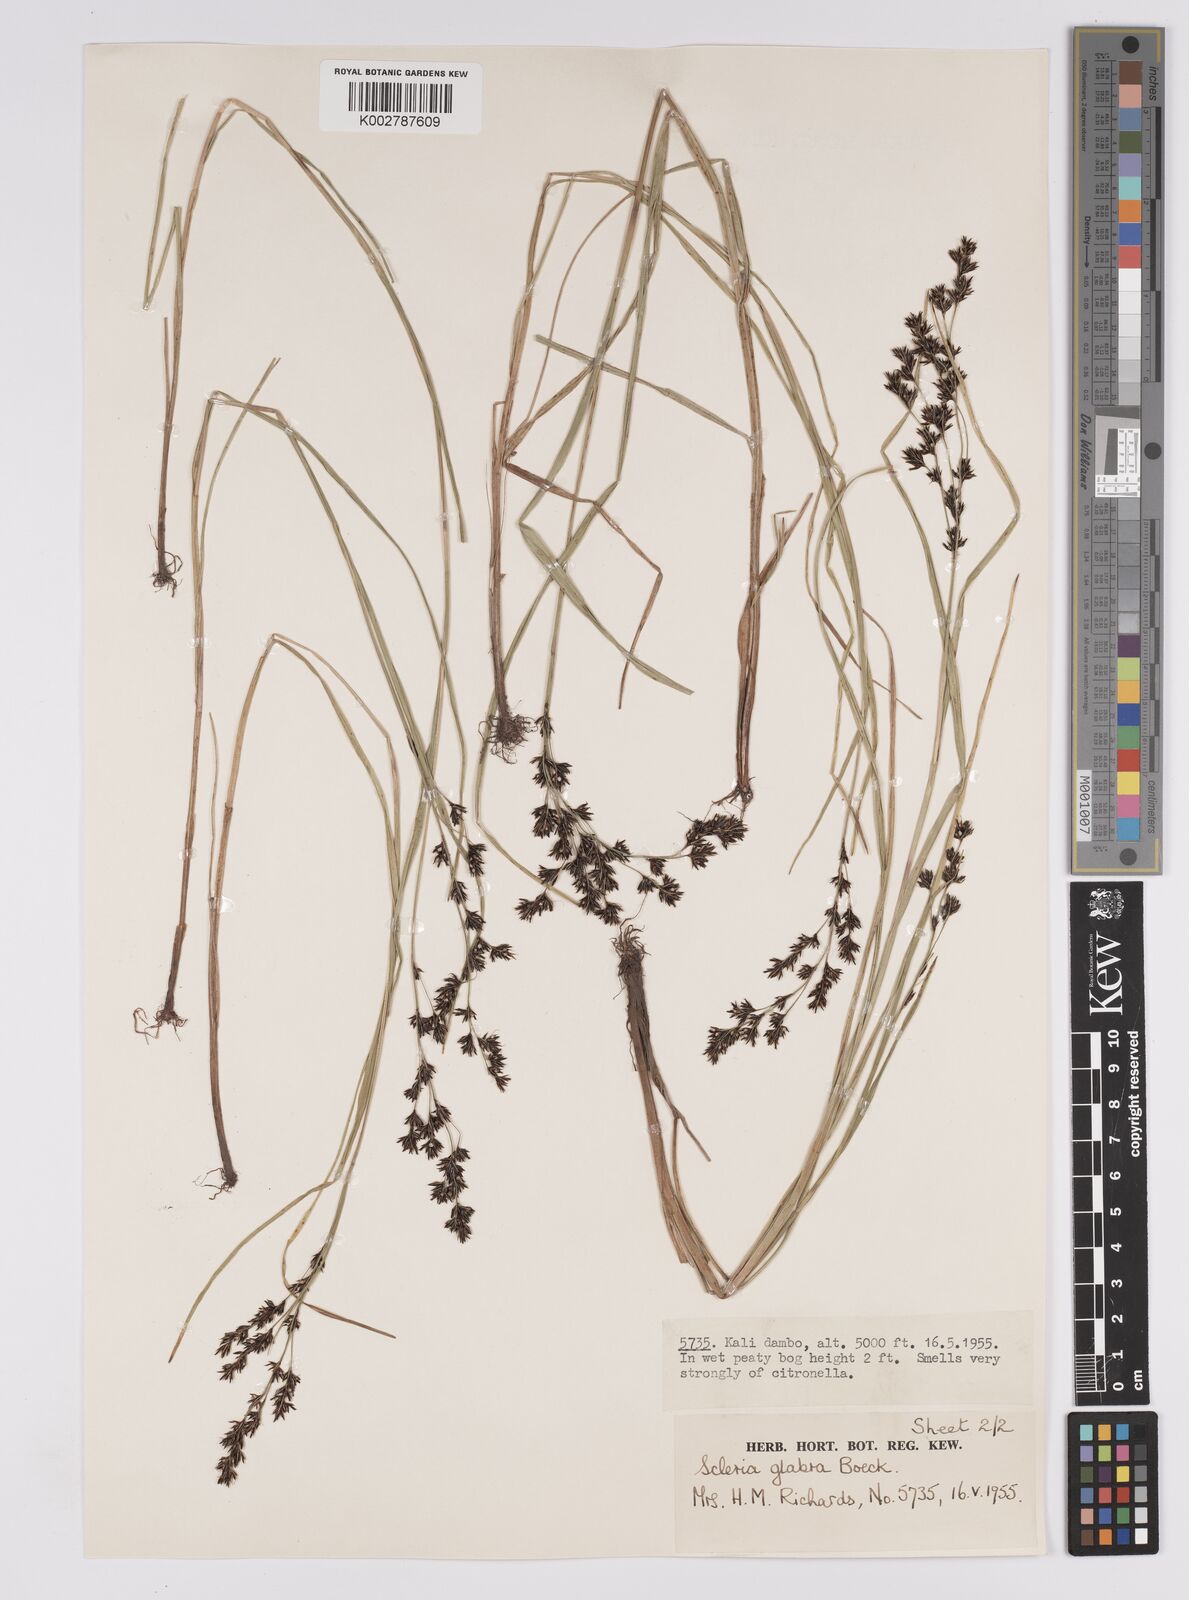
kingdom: Plantae
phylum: Tracheophyta
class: Liliopsida
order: Poales
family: Cyperaceae
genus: Scleria
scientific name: Scleria glabra
